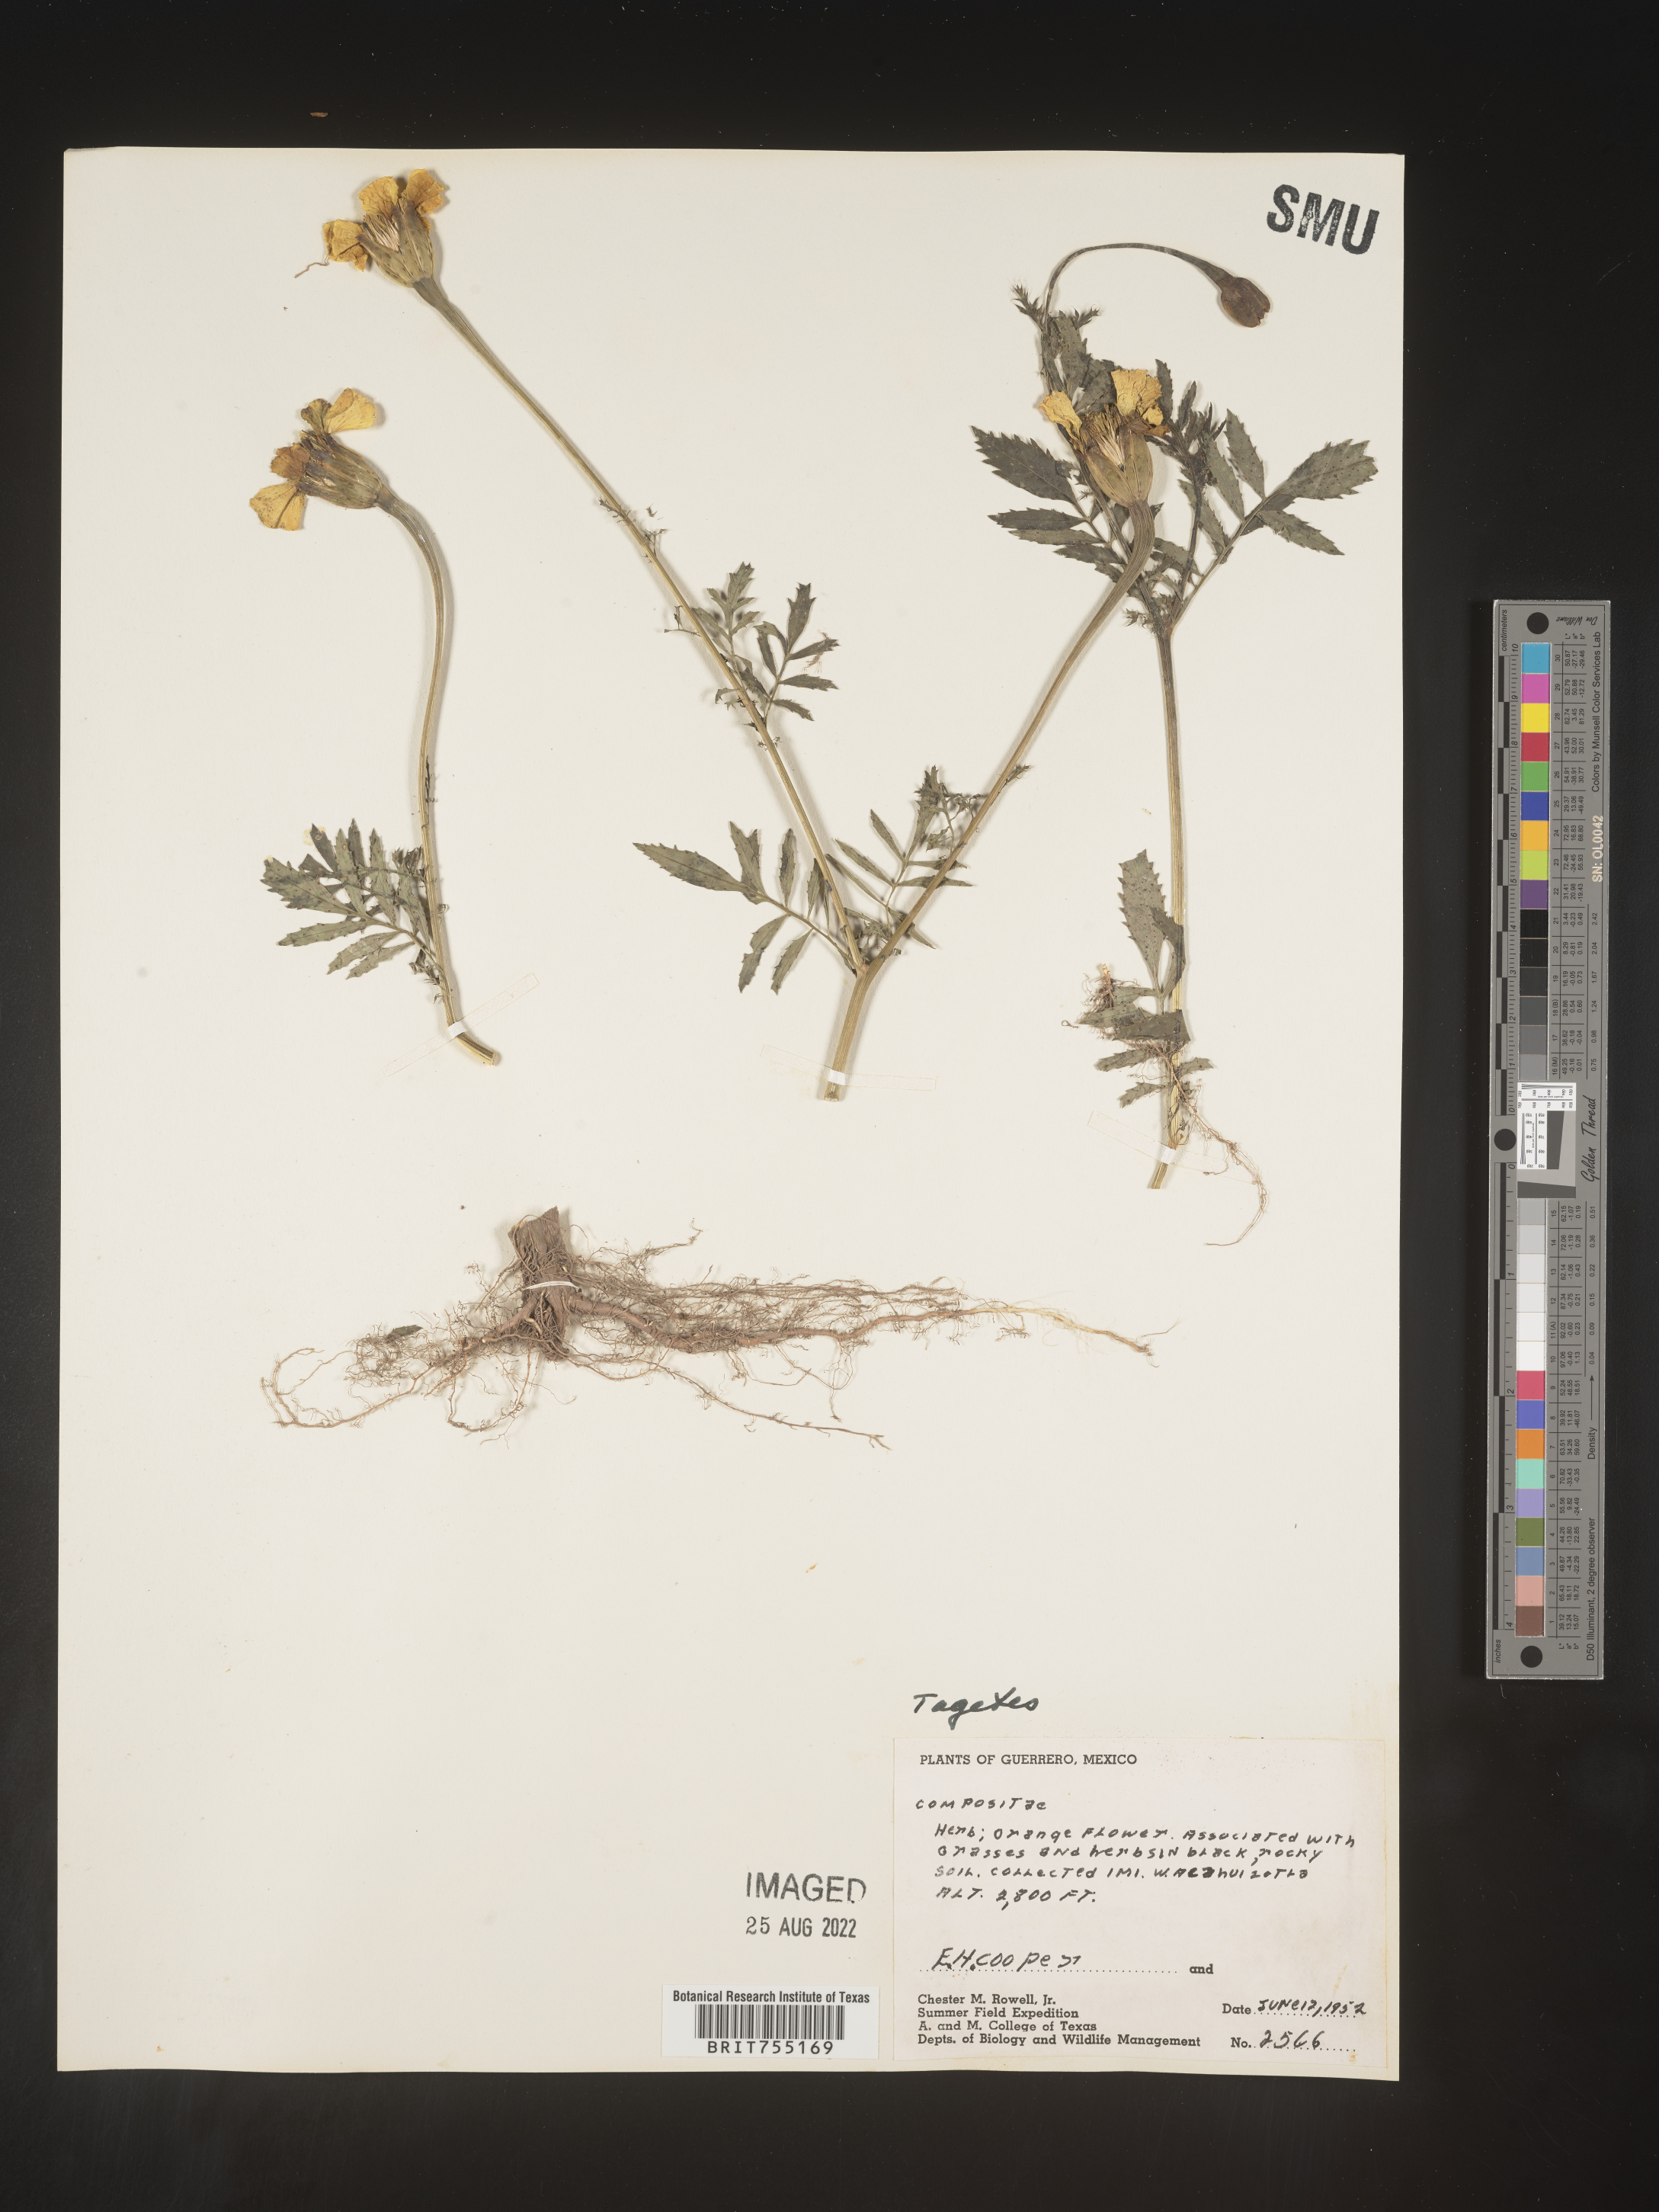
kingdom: Plantae
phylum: Tracheophyta
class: Magnoliopsida
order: Asterales
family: Asteraceae
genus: Tagetes
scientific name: Tagetes
